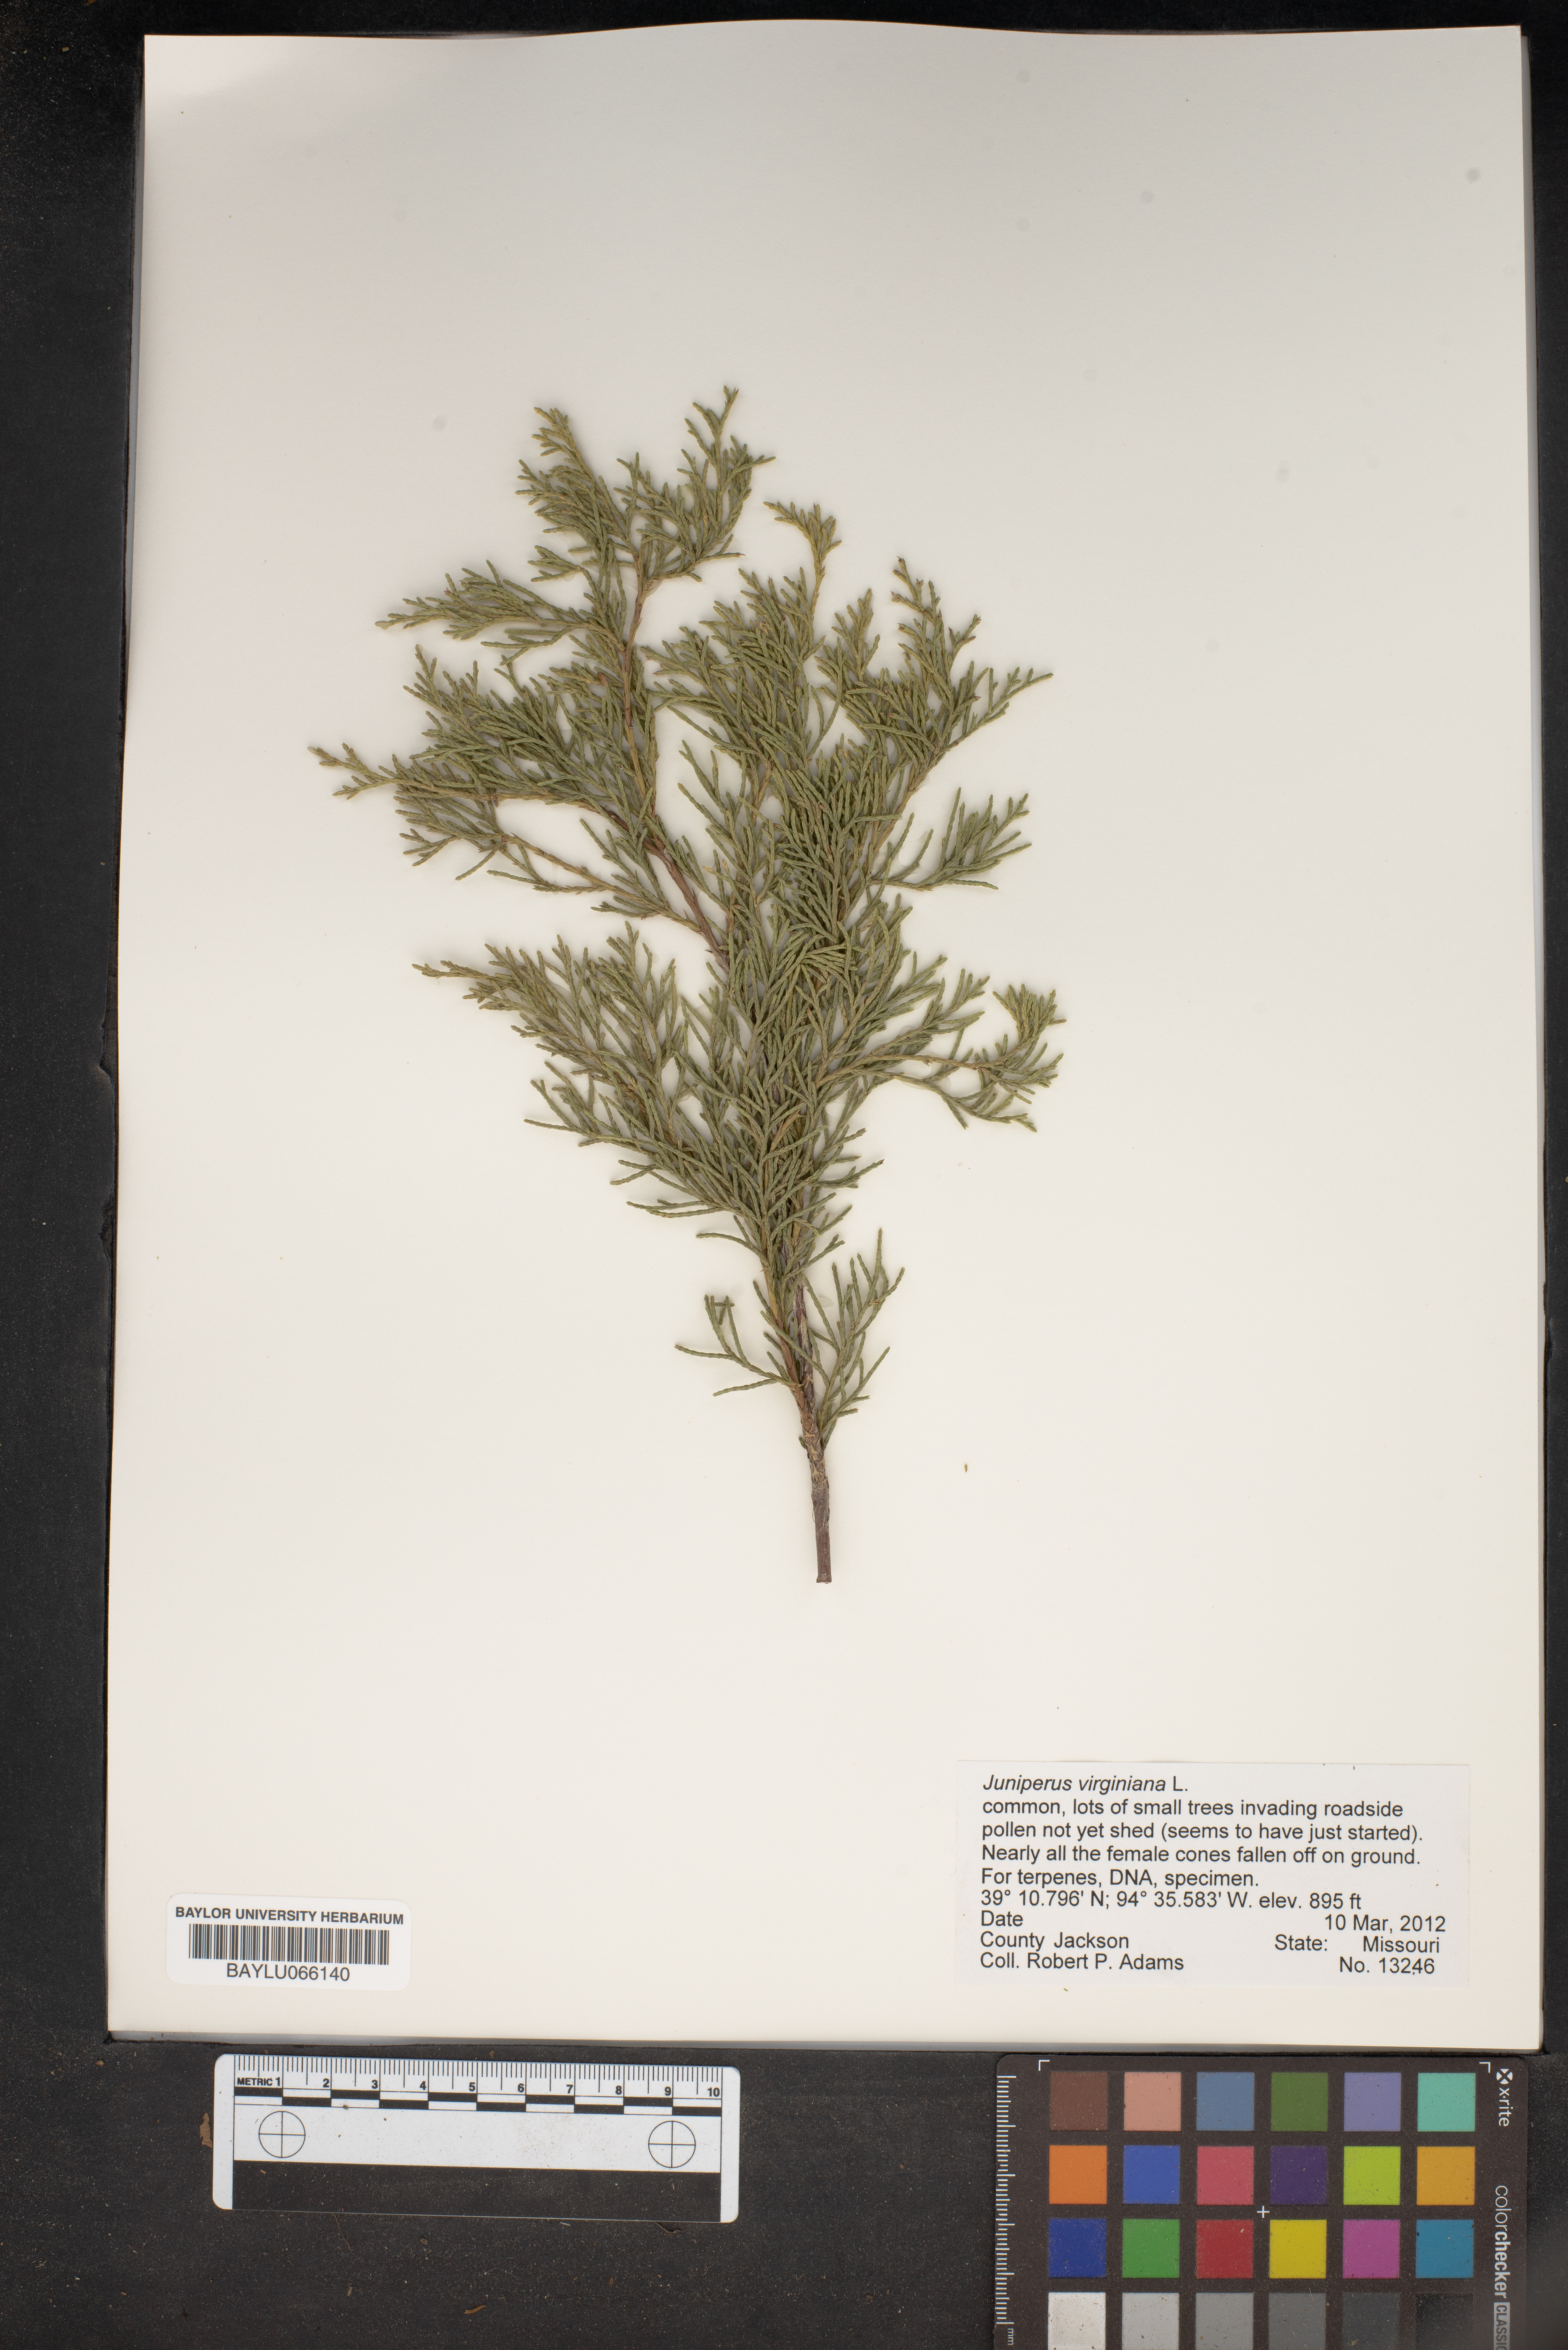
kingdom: Plantae
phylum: Tracheophyta
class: Pinopsida
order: Pinales
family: Cupressaceae
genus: Juniperus
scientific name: Juniperus virginiana
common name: Red juniper
